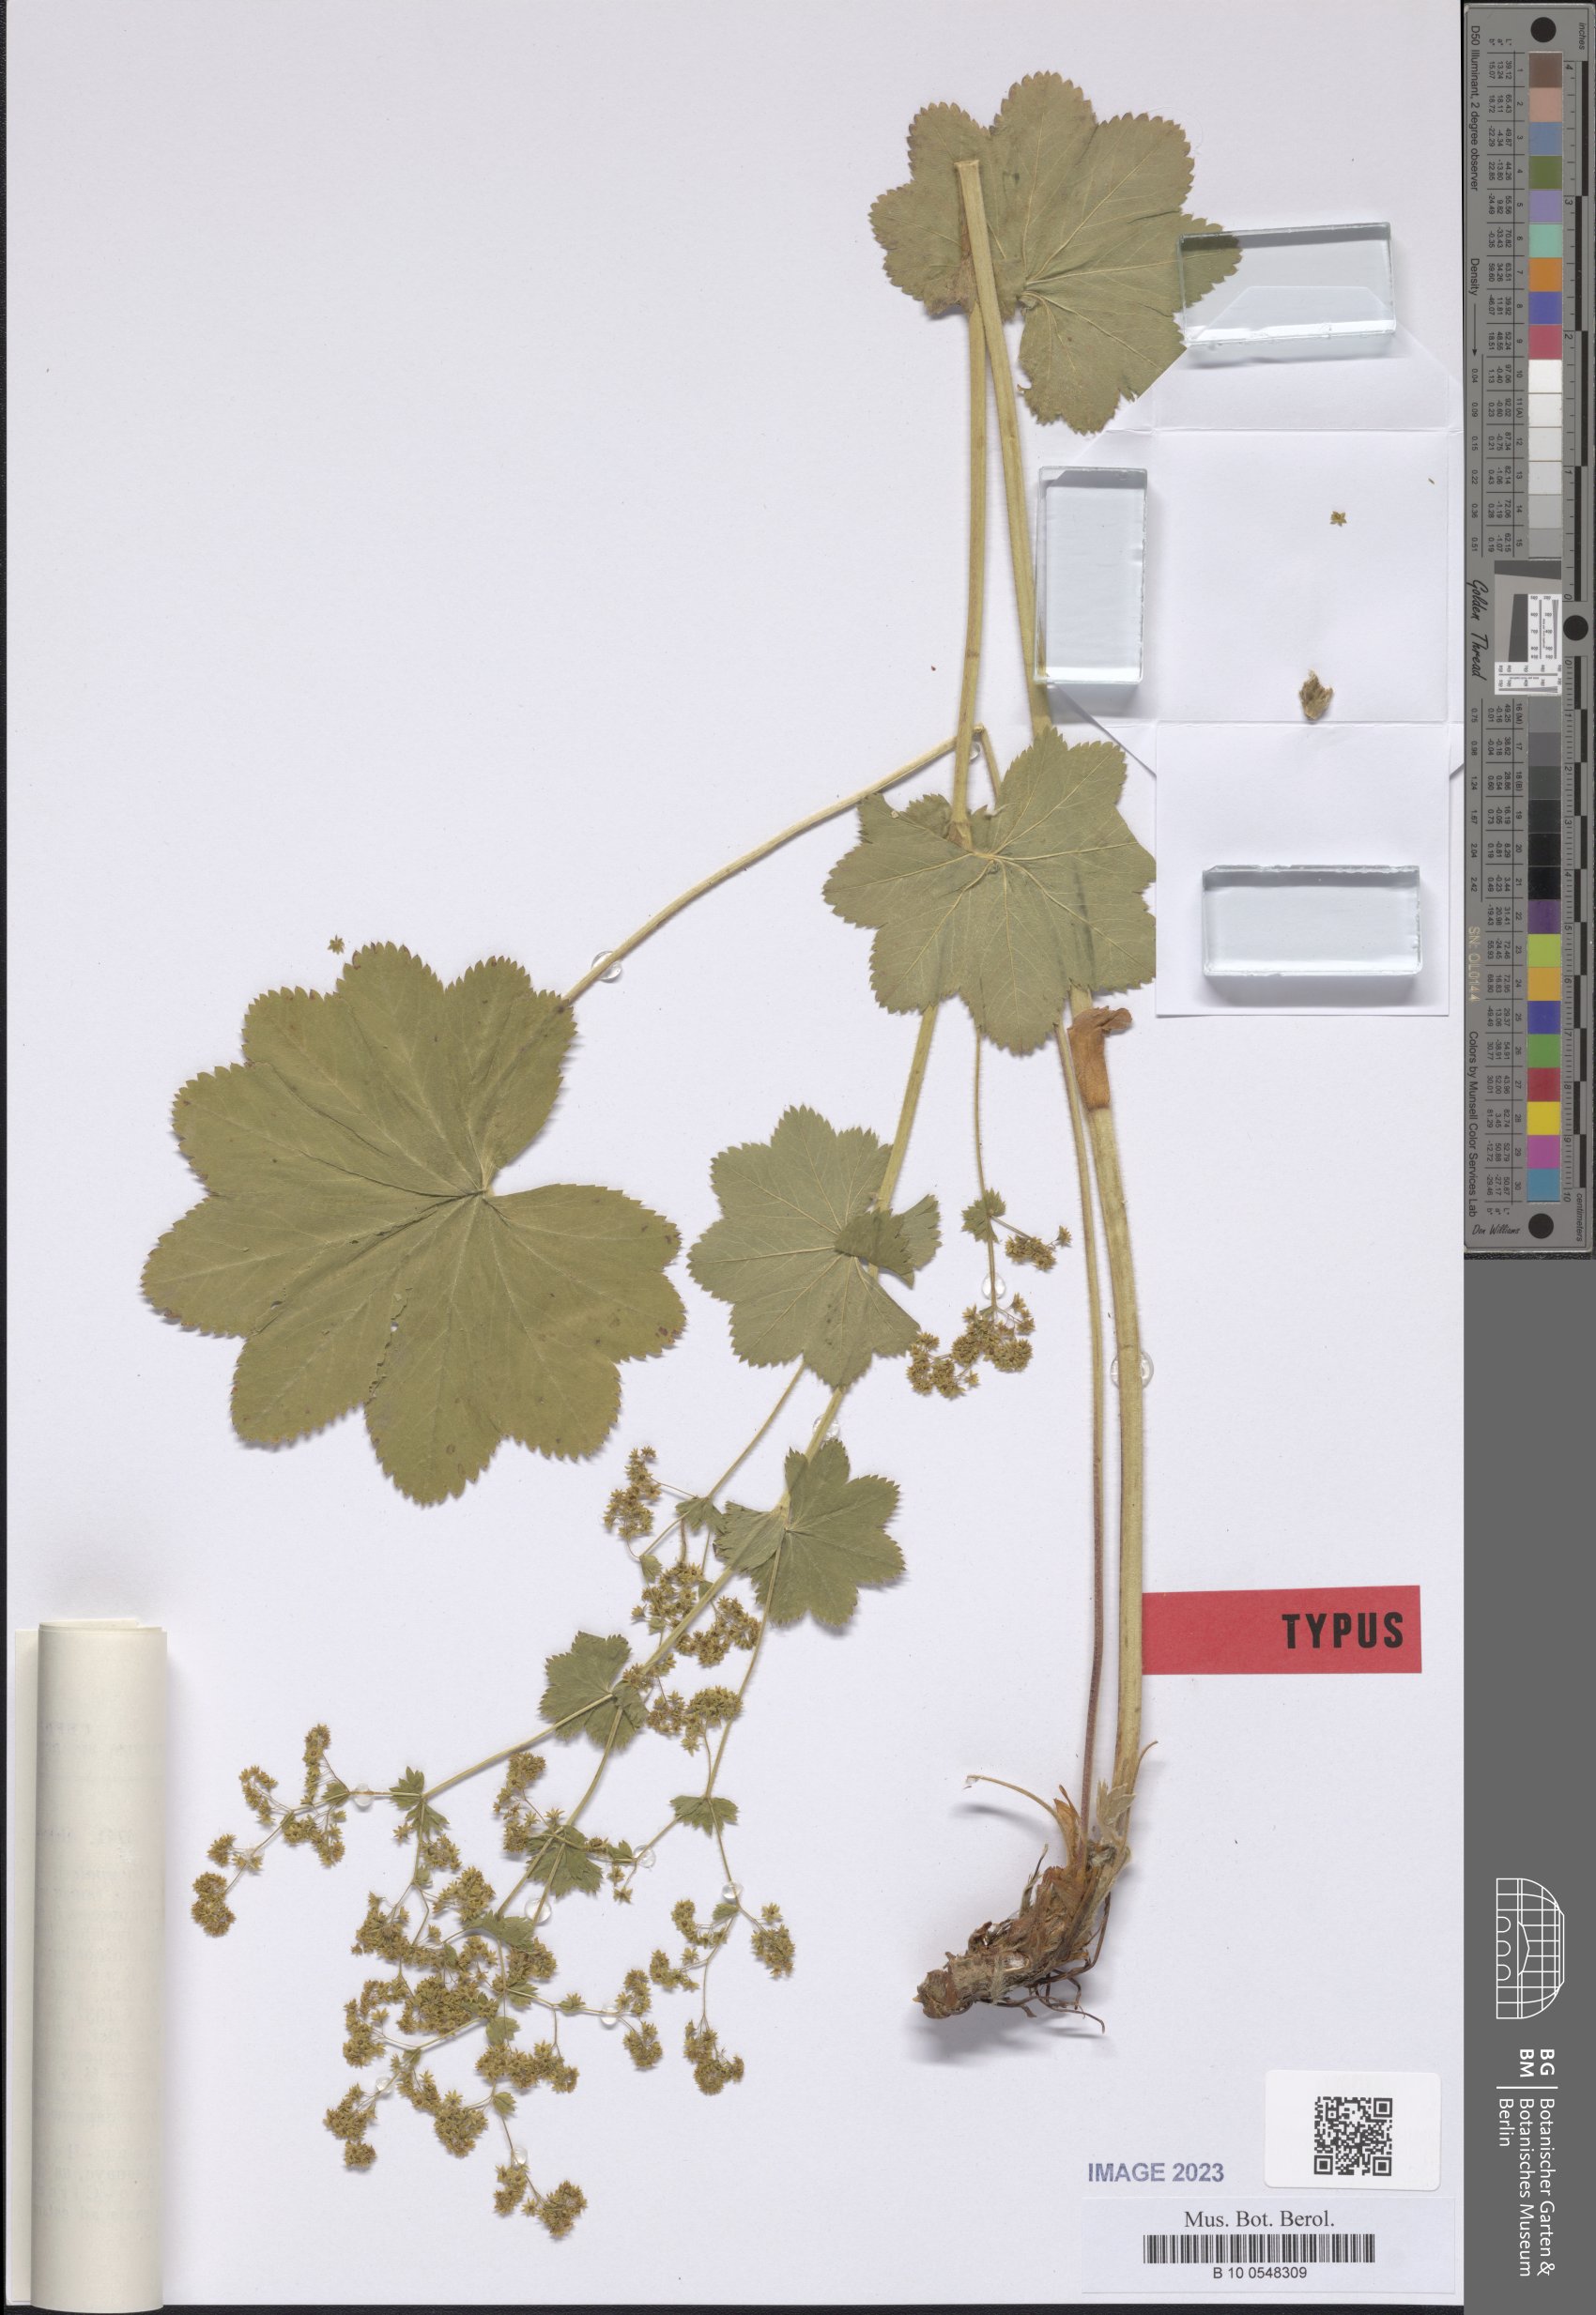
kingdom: Plantae
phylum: Tracheophyta
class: Magnoliopsida
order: Rosales
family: Rosaceae
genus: Alchemilla
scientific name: Alchemilla dombaica
